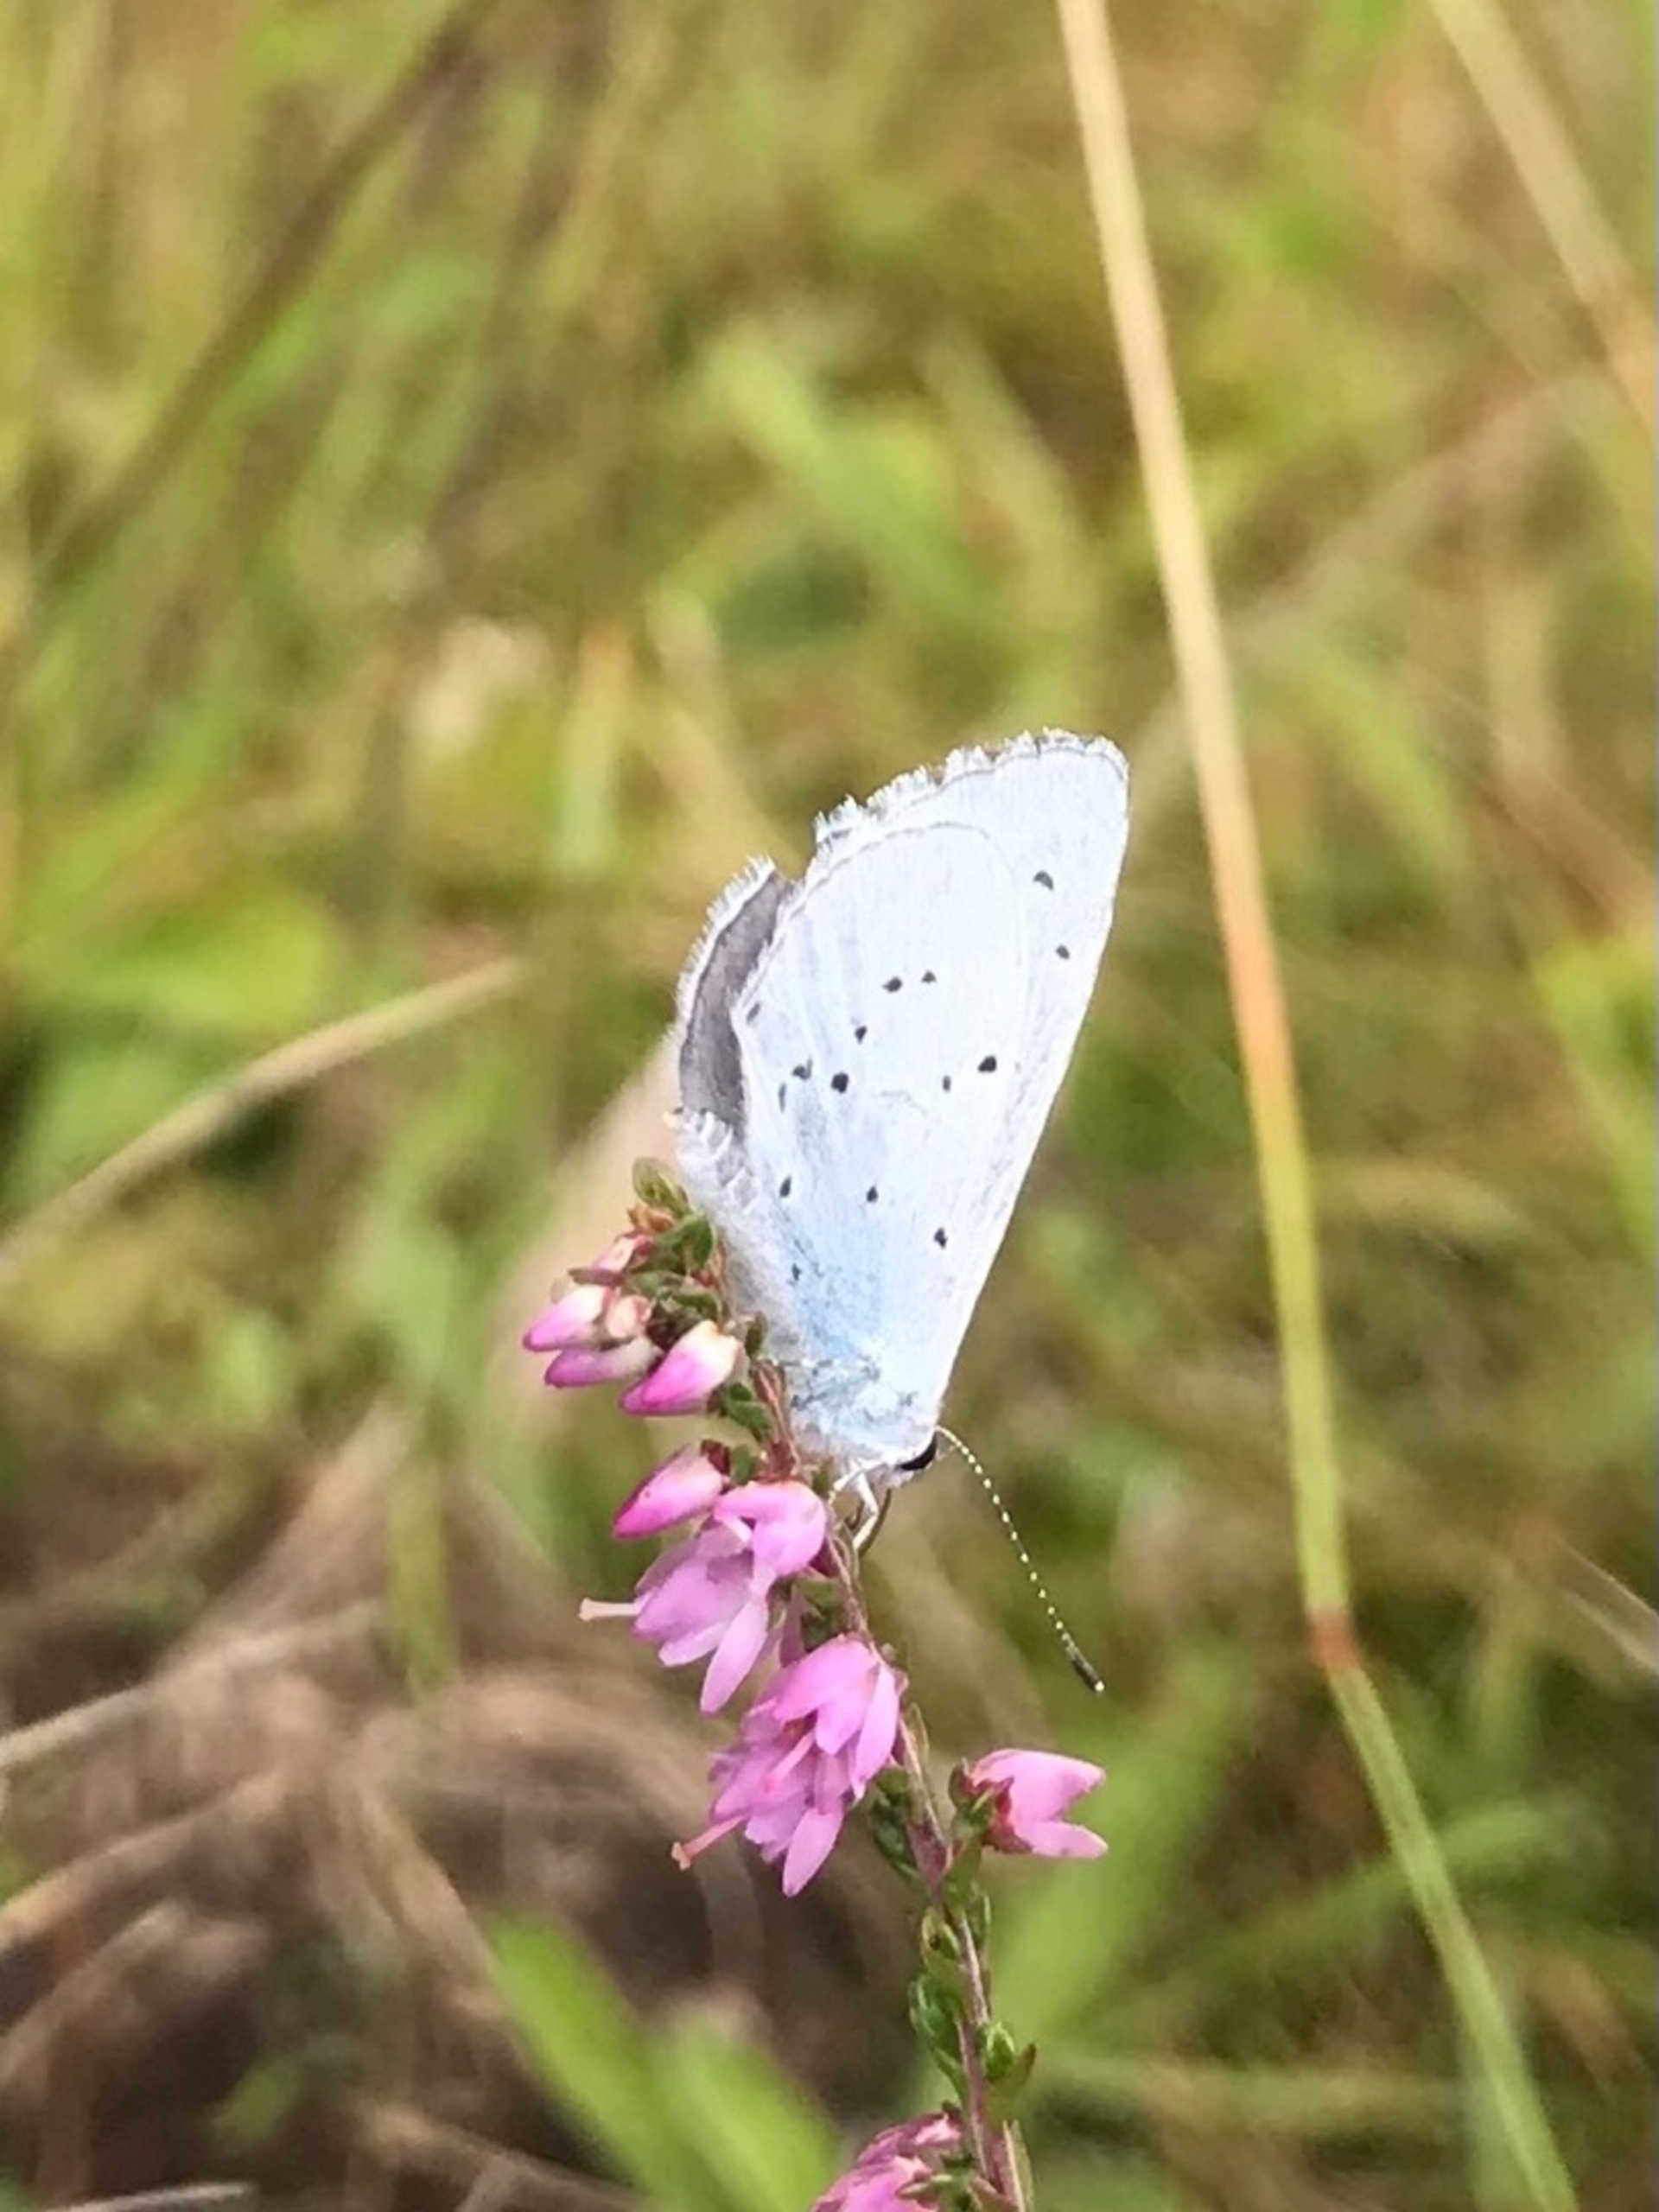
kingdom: Animalia
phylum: Arthropoda
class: Insecta
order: Lepidoptera
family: Lycaenidae
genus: Celastrina
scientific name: Celastrina argiolus
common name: Skovblåfugl
